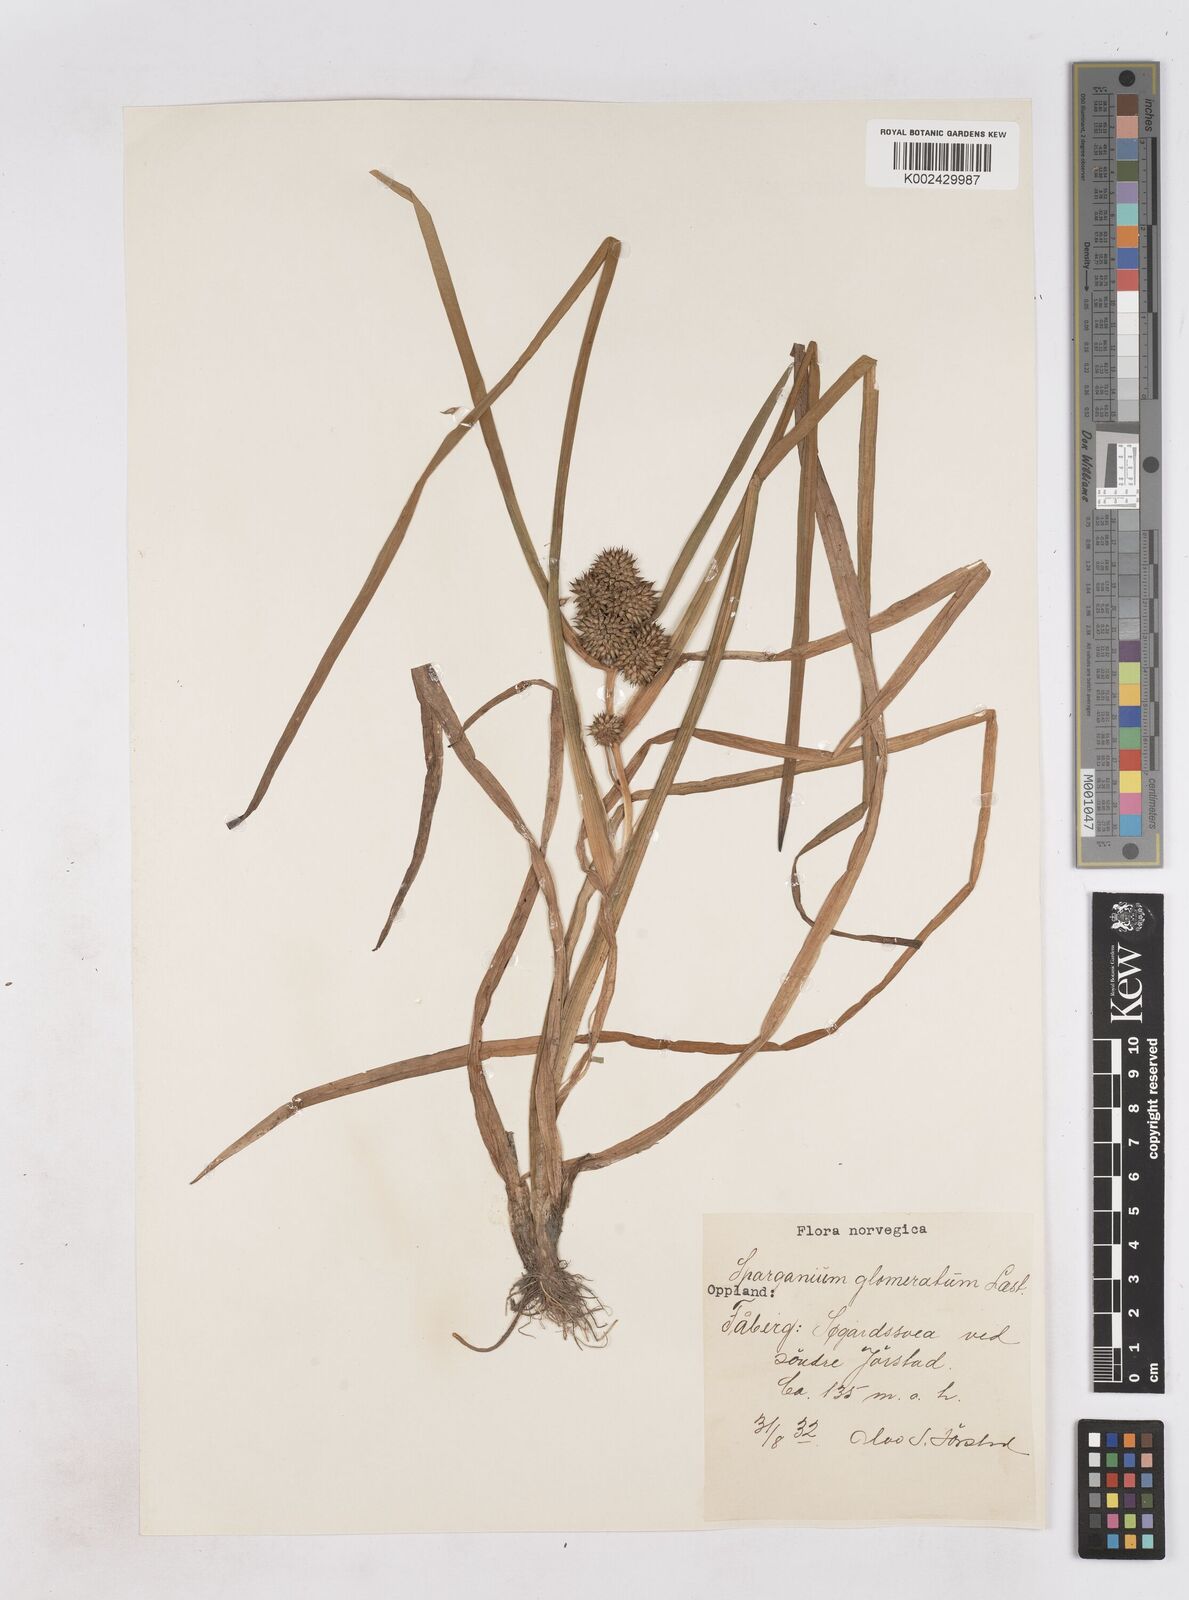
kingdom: Plantae
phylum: Tracheophyta
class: Liliopsida
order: Poales
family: Typhaceae
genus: Sparganium
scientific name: Sparganium angustifolium
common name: Floating bur-reed
